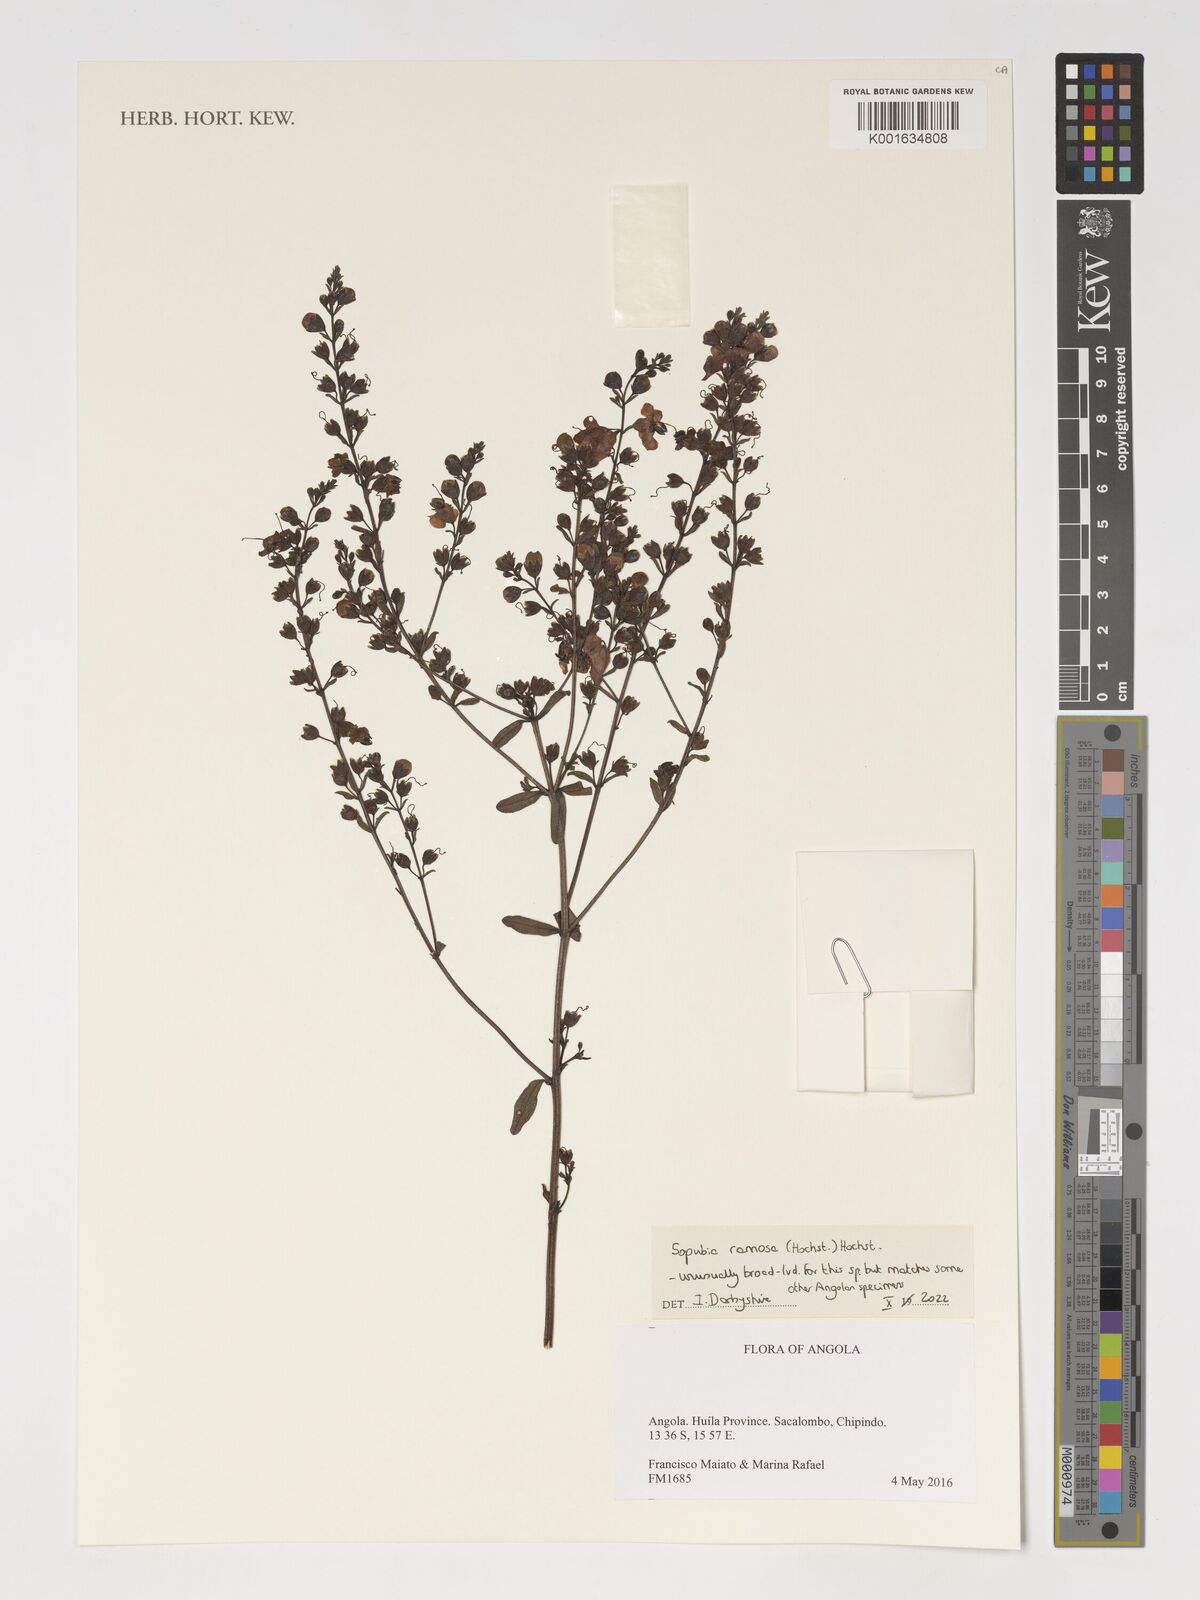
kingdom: Plantae
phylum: Tracheophyta
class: Magnoliopsida
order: Lamiales
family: Orobanchaceae
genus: Sopubia
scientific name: Sopubia ramosa
